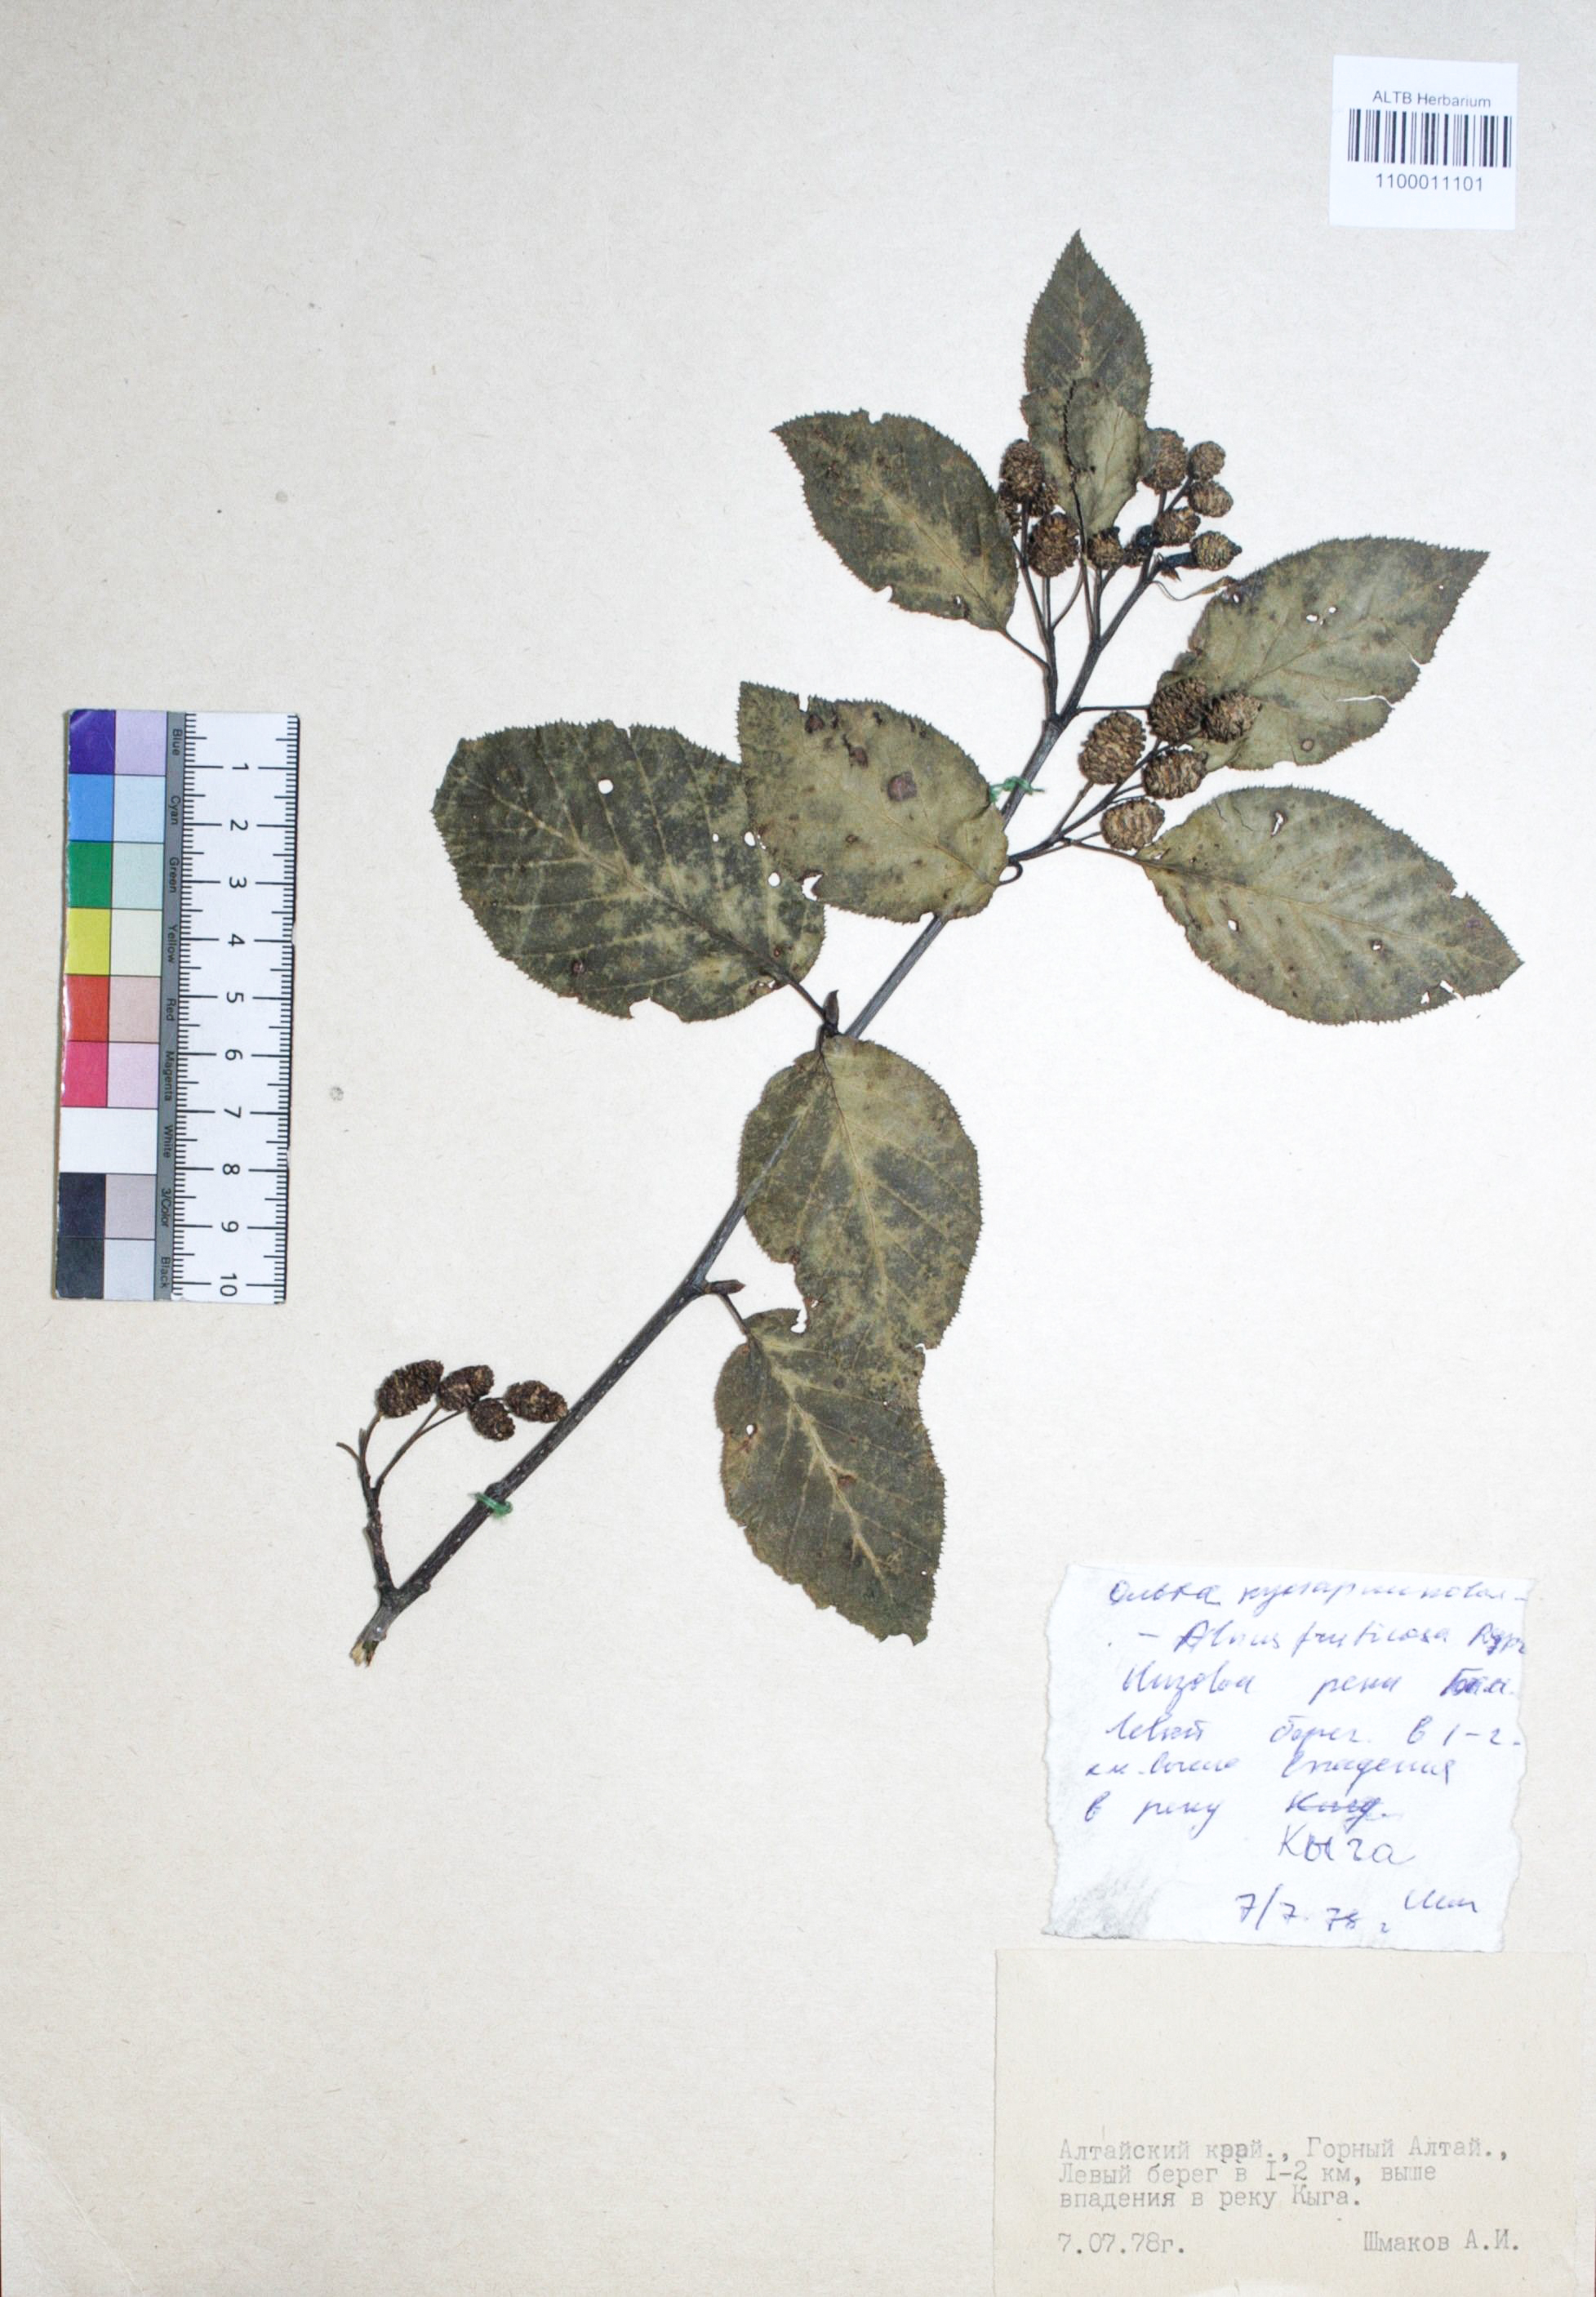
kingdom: Plantae
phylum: Tracheophyta
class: Magnoliopsida
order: Fagales
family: Betulaceae
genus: Alnus
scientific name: Alnus alnobetula
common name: Green alder
